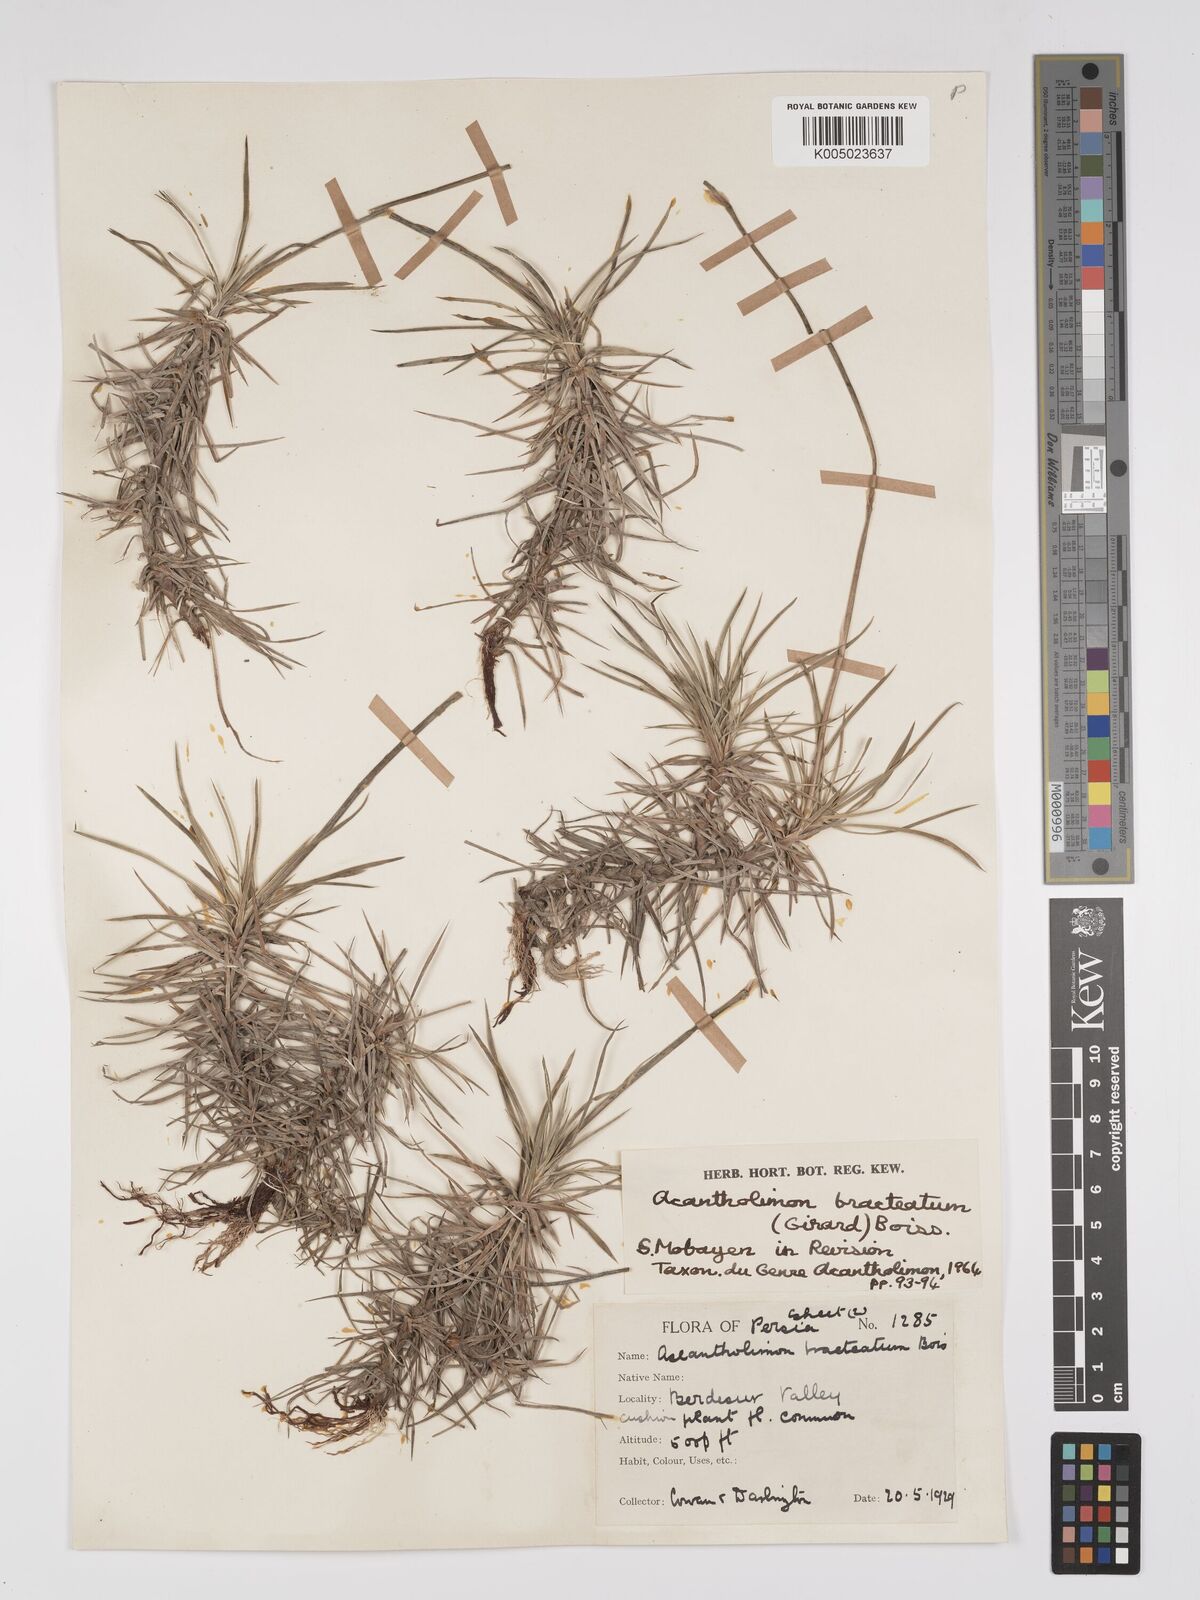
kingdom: Plantae
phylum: Tracheophyta
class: Magnoliopsida
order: Caryophyllales
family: Plumbaginaceae
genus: Acantholimon
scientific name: Acantholimon bracteatum
